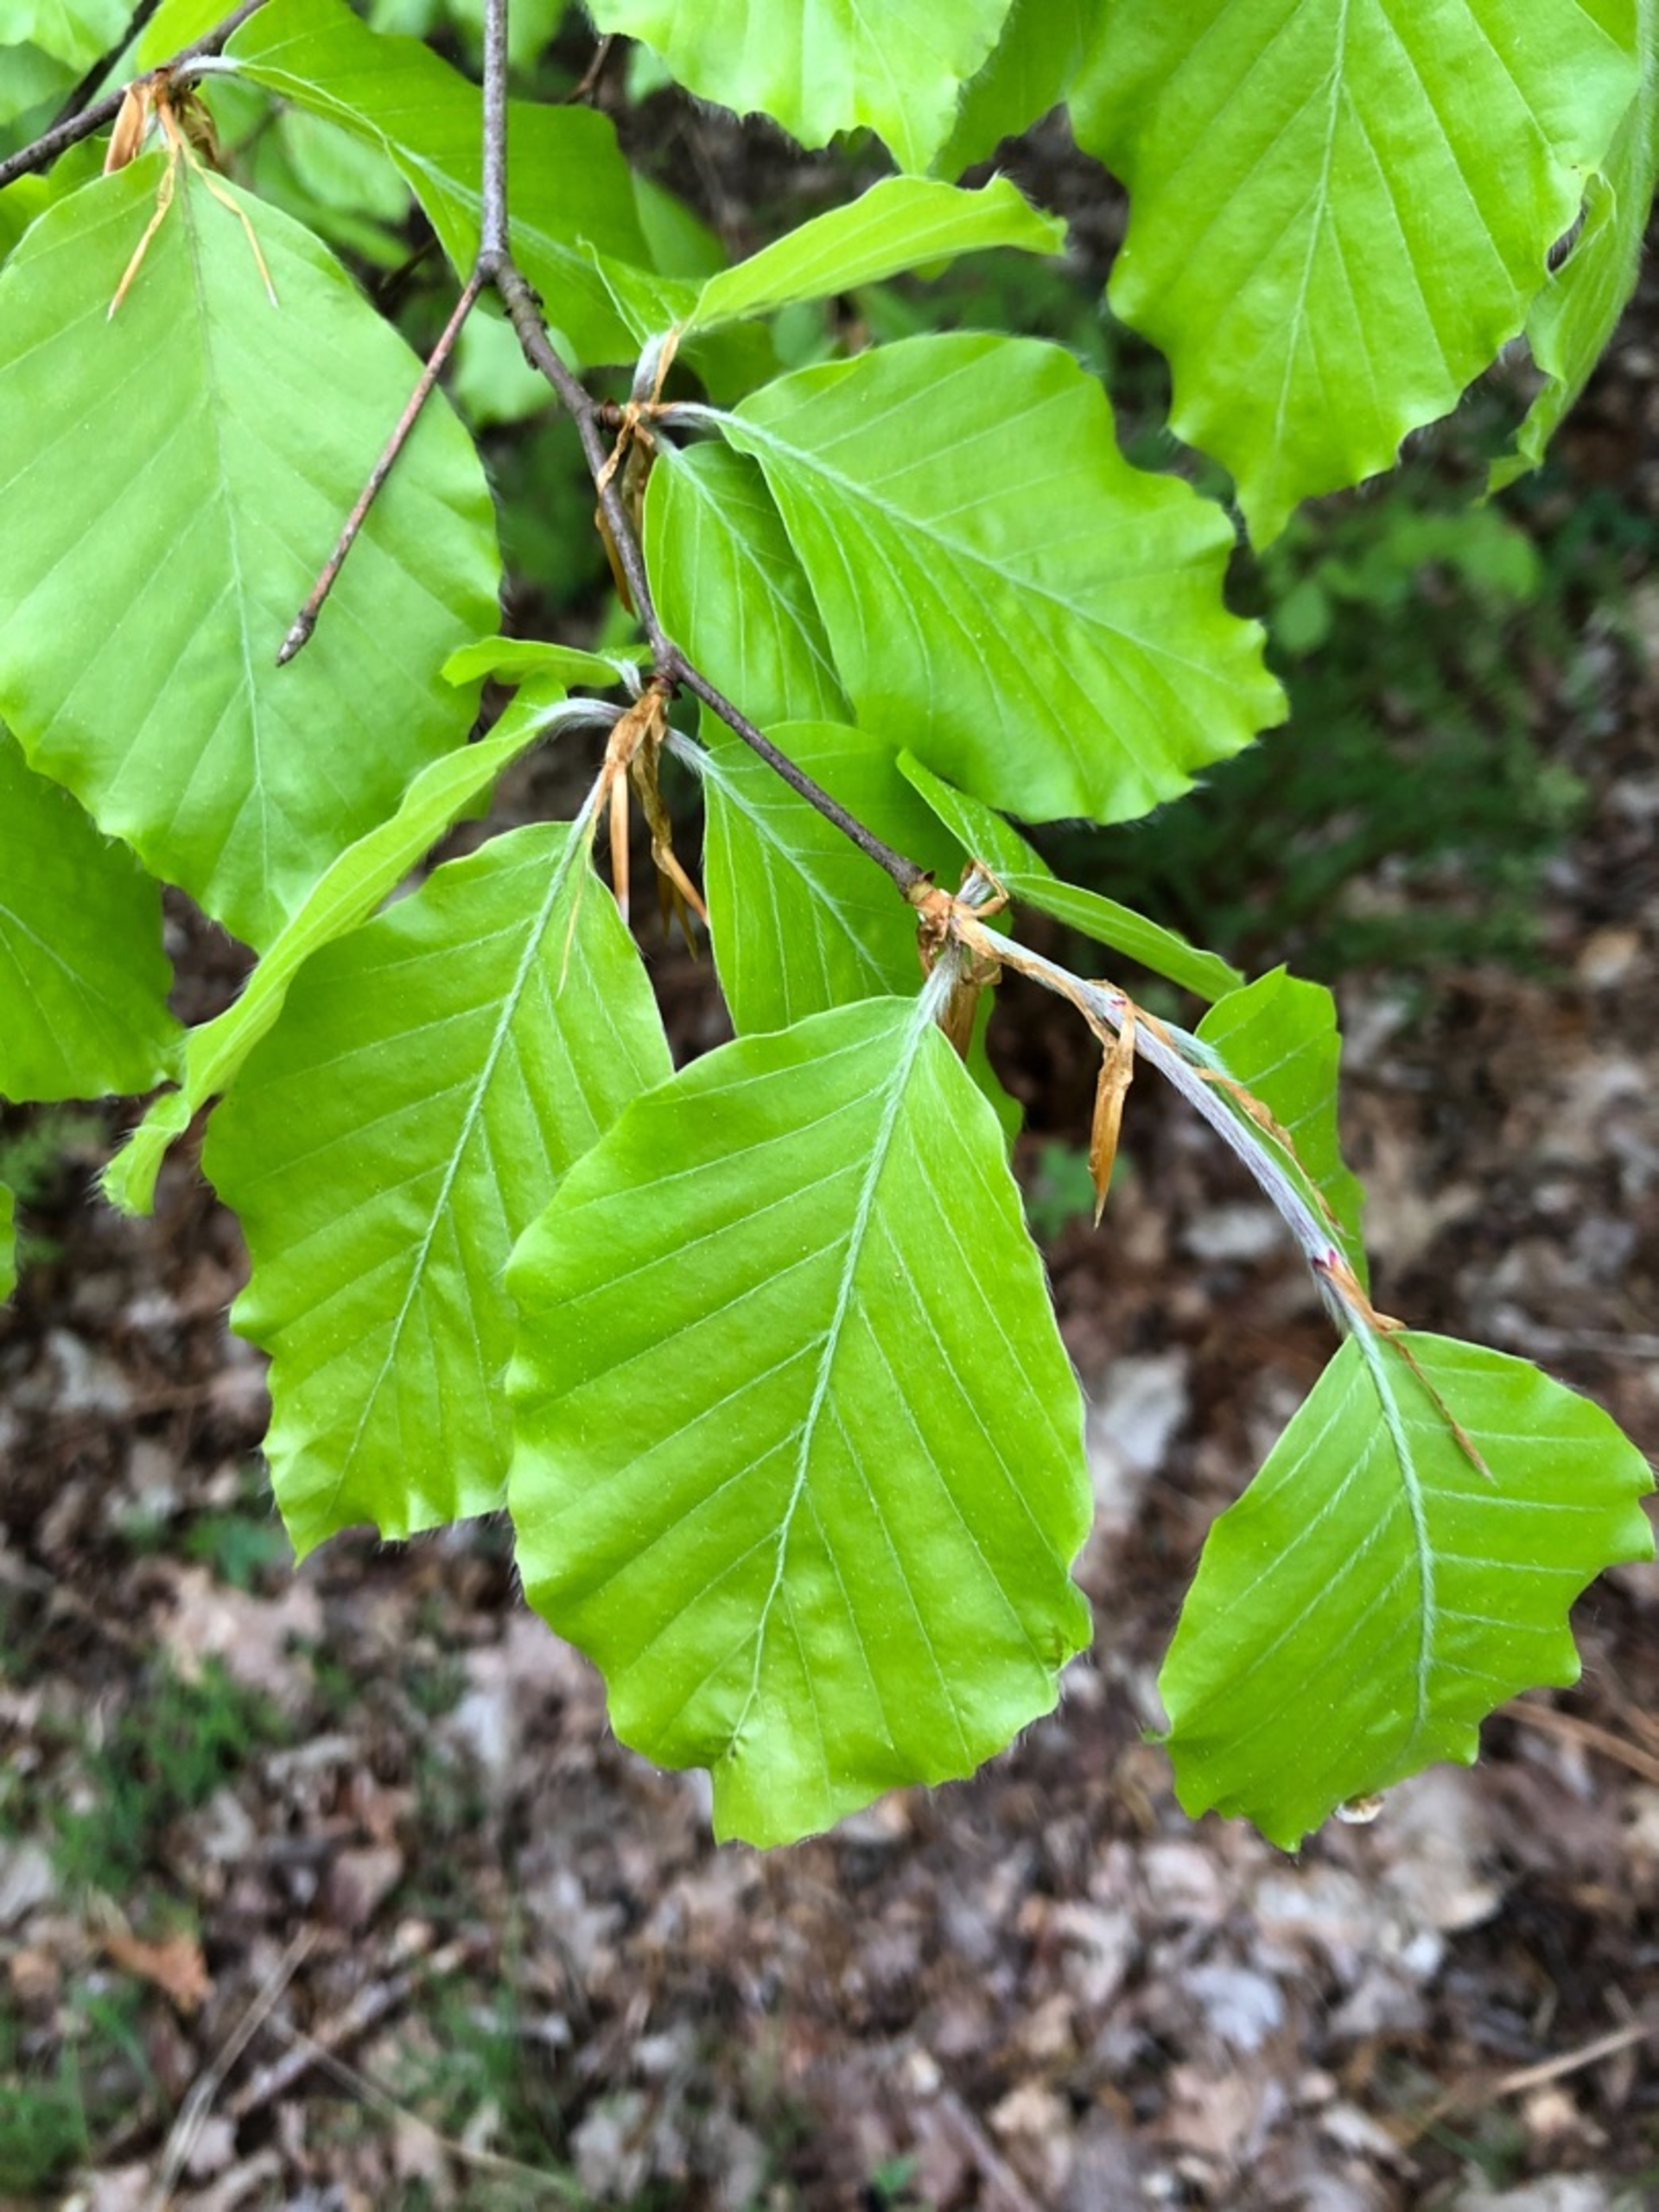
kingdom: Plantae
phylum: Tracheophyta
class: Magnoliopsida
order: Fagales
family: Fagaceae
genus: Fagus
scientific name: Fagus sylvatica
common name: Bøg
